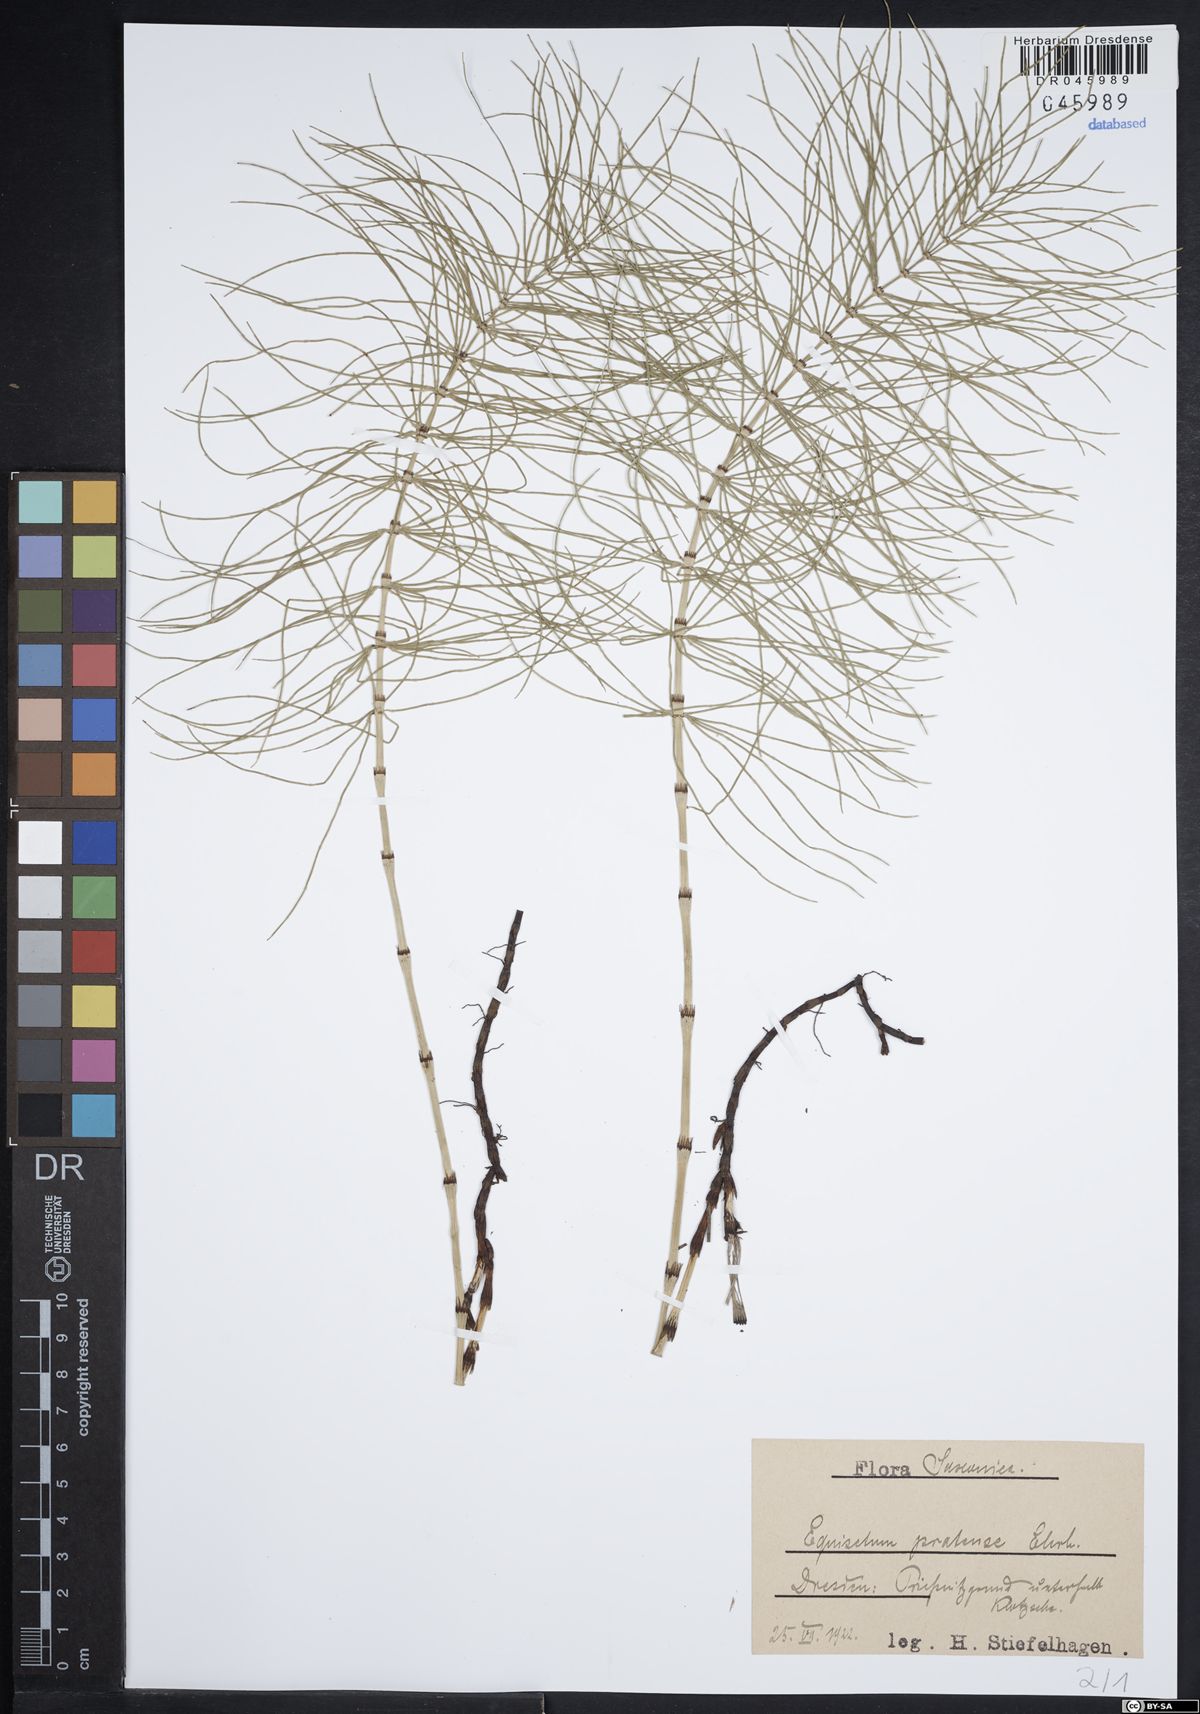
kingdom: Plantae
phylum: Tracheophyta
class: Polypodiopsida
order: Equisetales
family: Equisetaceae
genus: Equisetum
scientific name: Equisetum pratense
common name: Meadow horsetail
